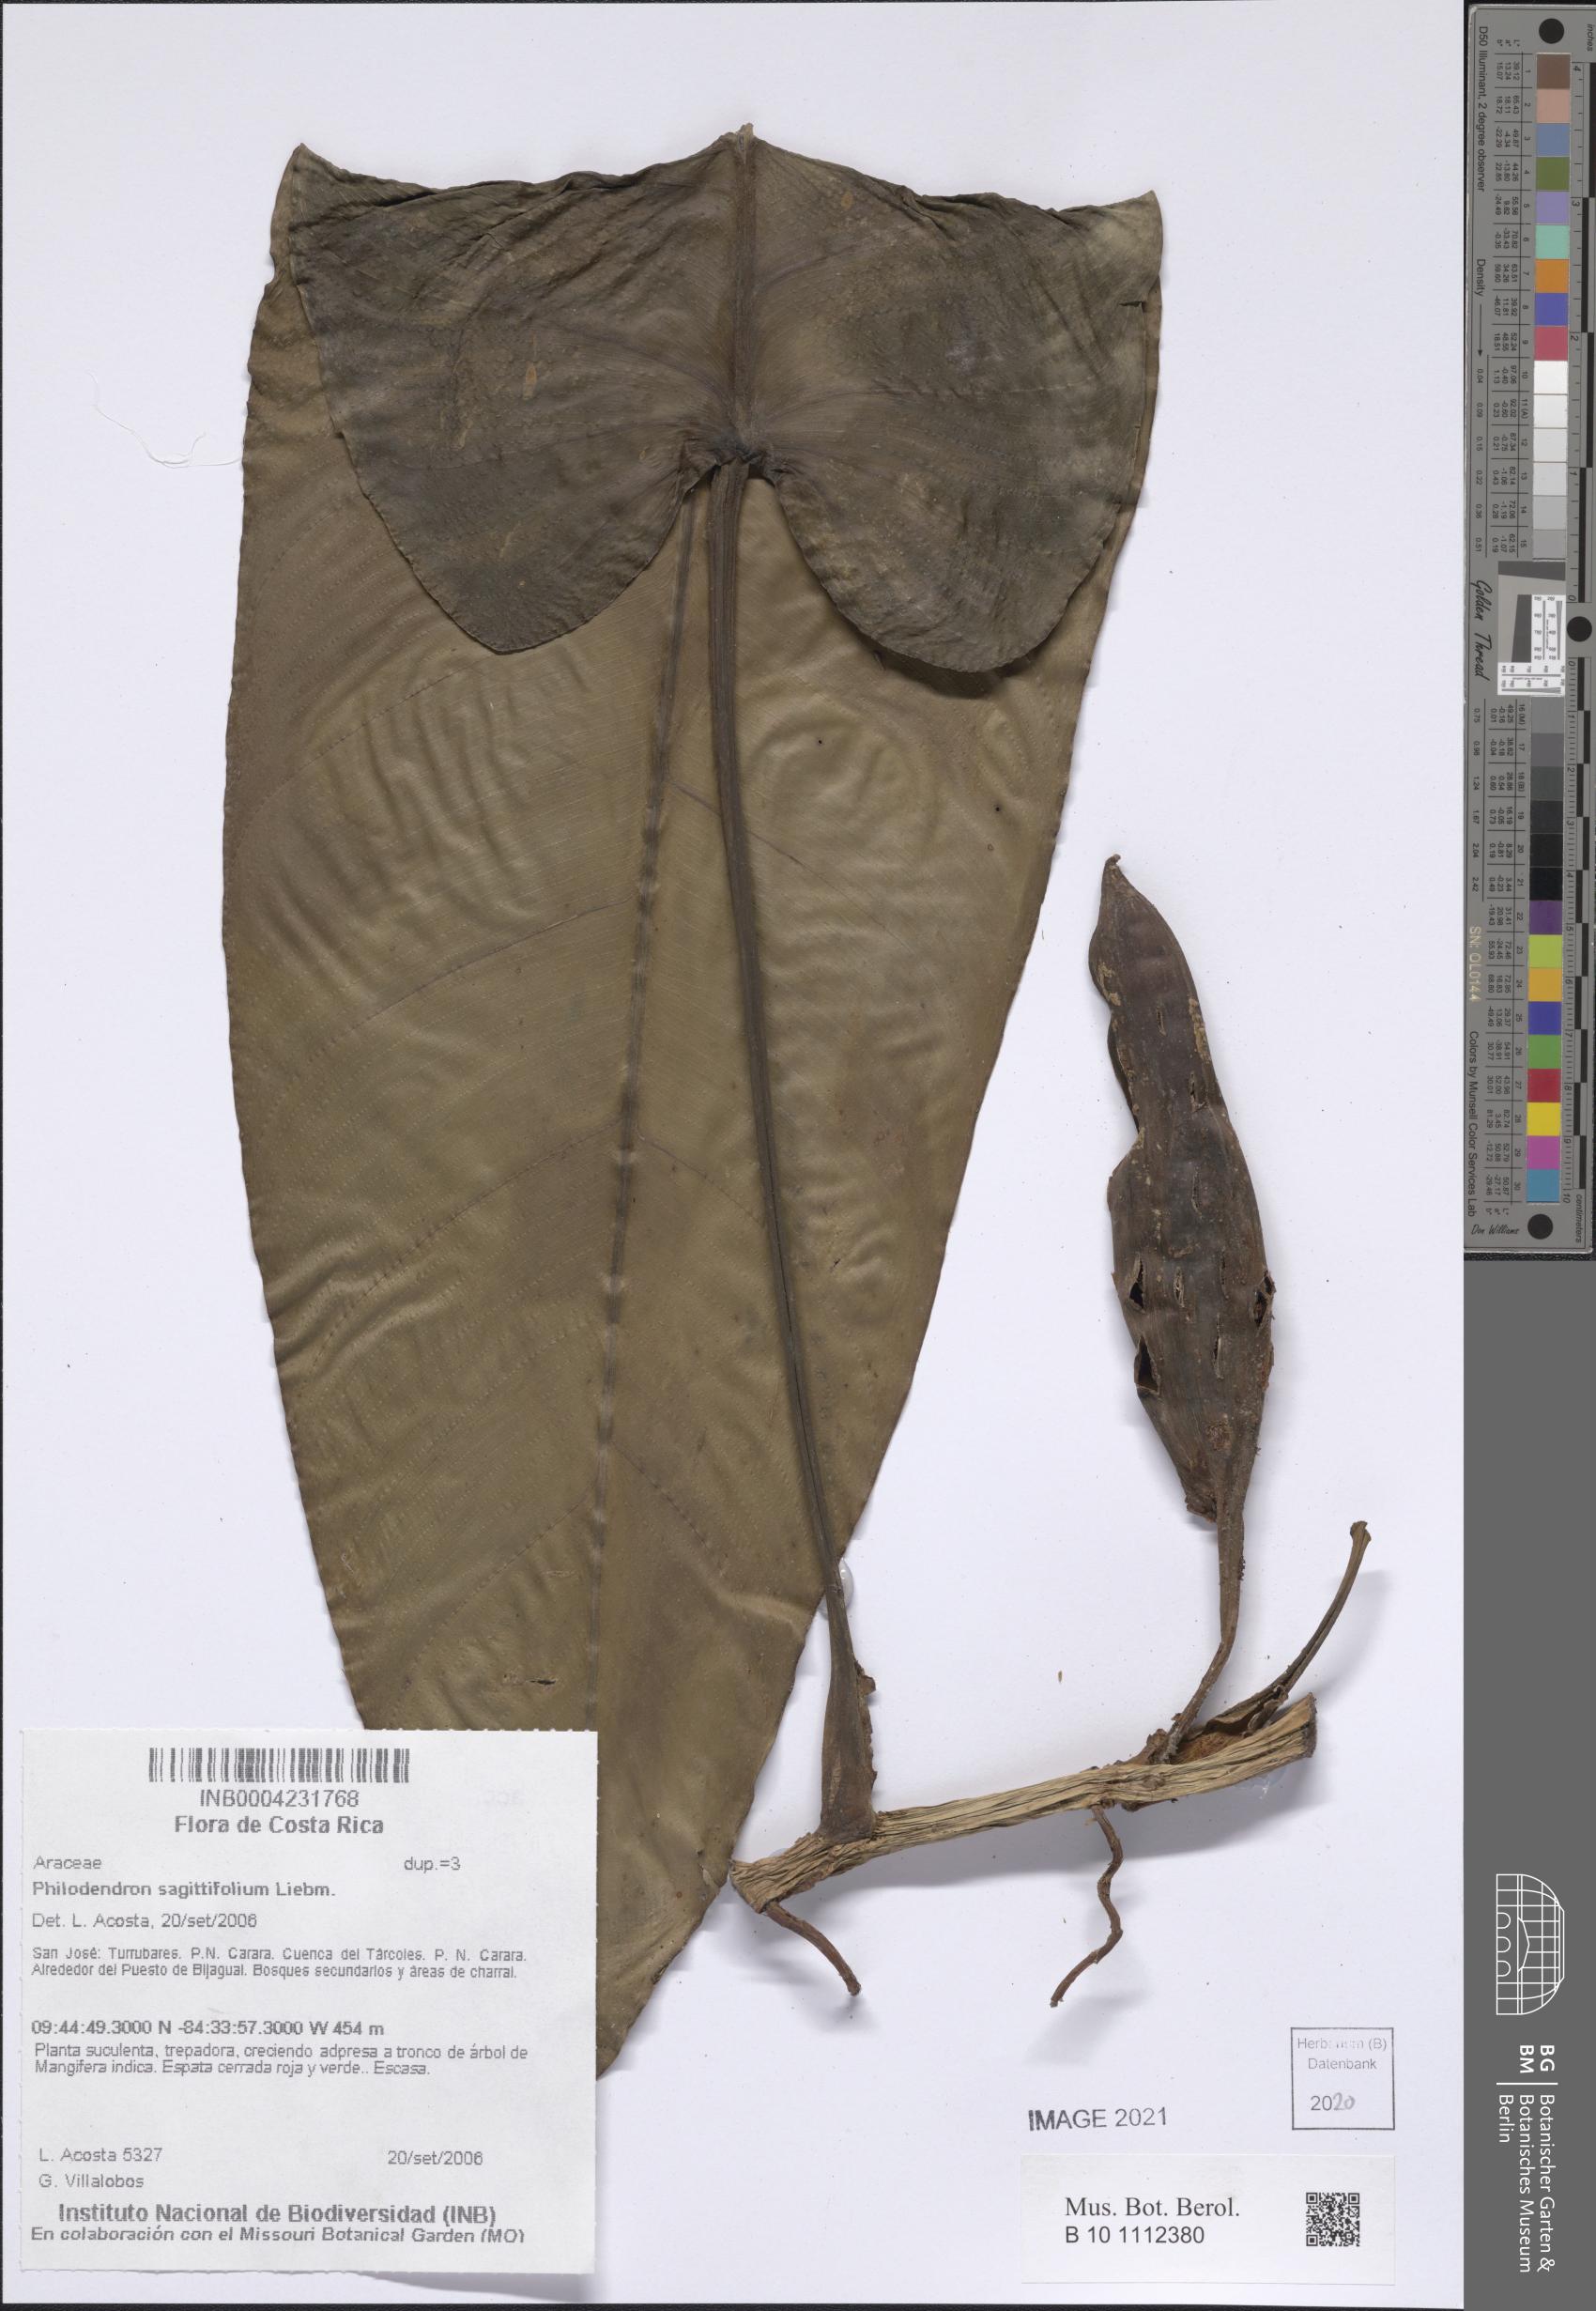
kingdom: Plantae
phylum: Tracheophyta
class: Liliopsida
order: Alismatales
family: Araceae
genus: Philodendron
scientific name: Philodendron sagittifolium
